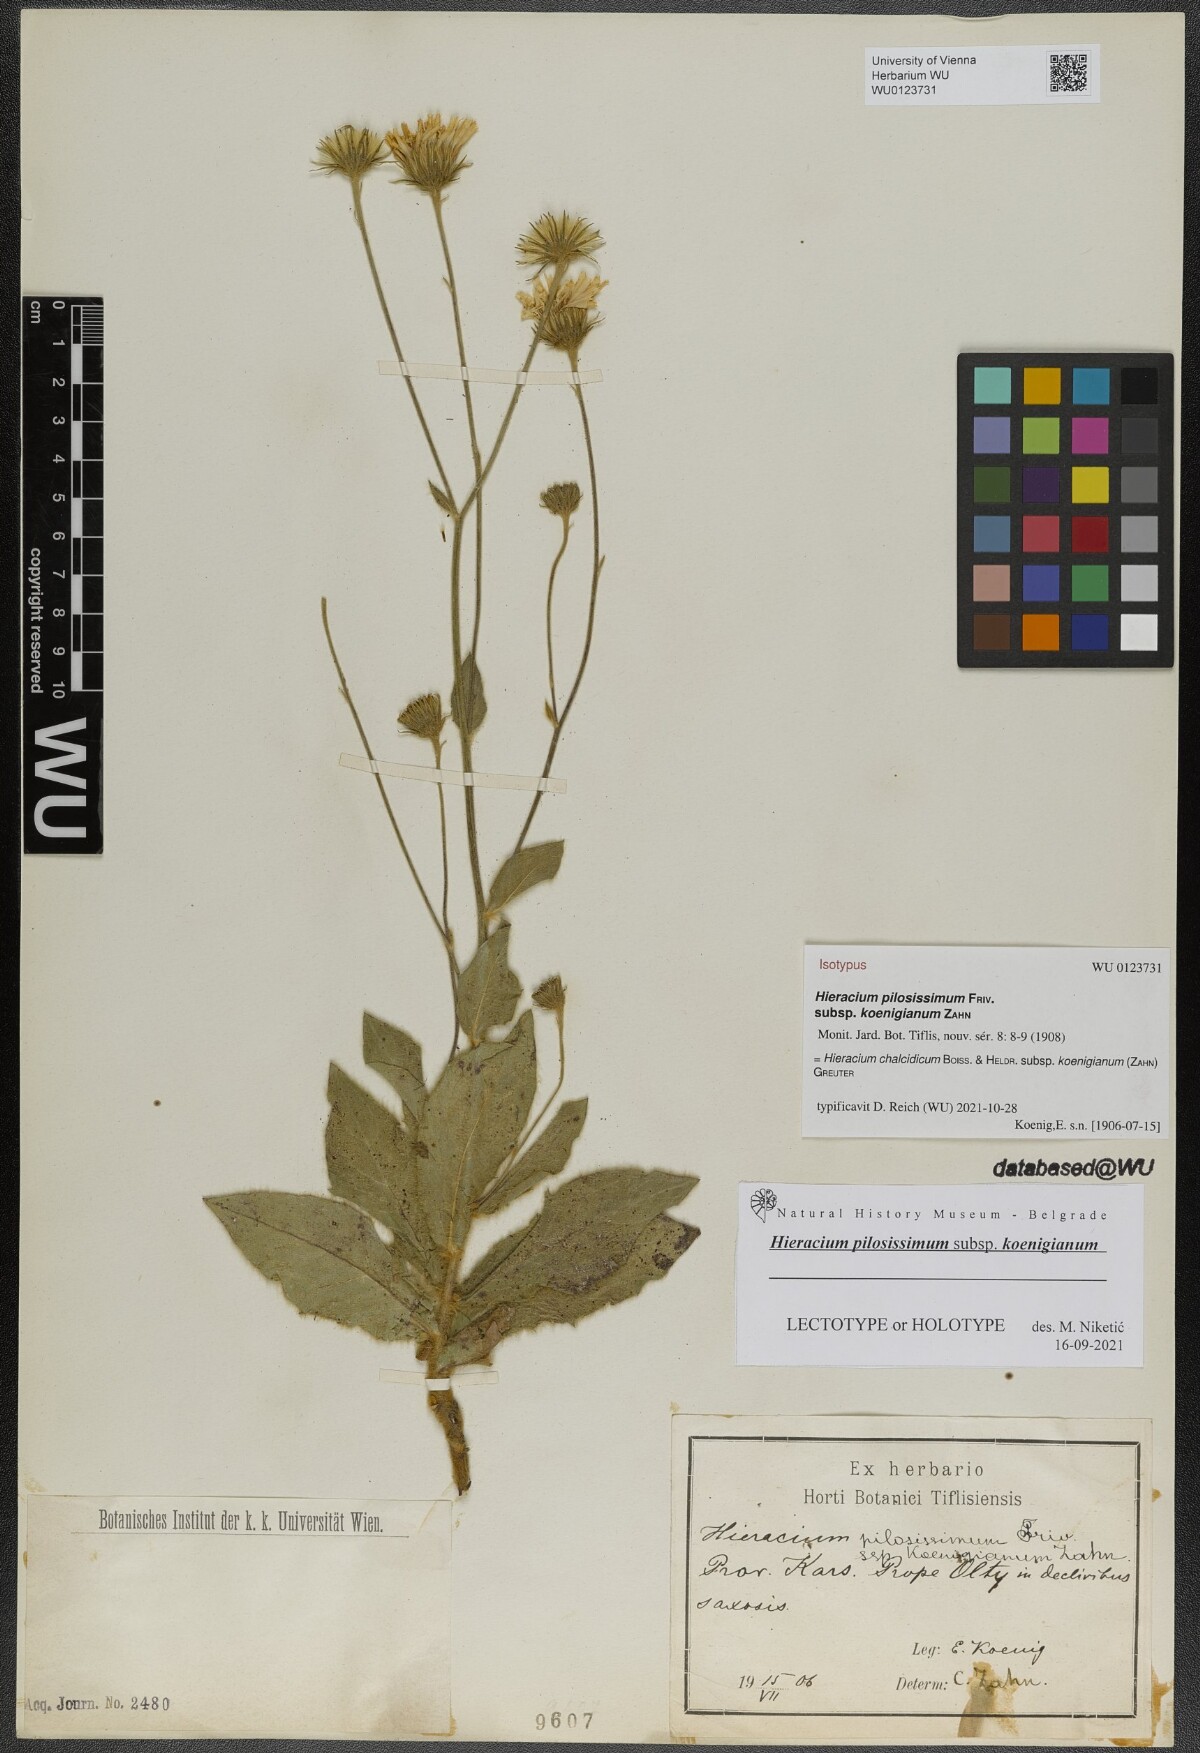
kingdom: Plantae
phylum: Tracheophyta
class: Magnoliopsida
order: Asterales
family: Asteraceae
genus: Hieracium
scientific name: Hieracium chalcidicum
